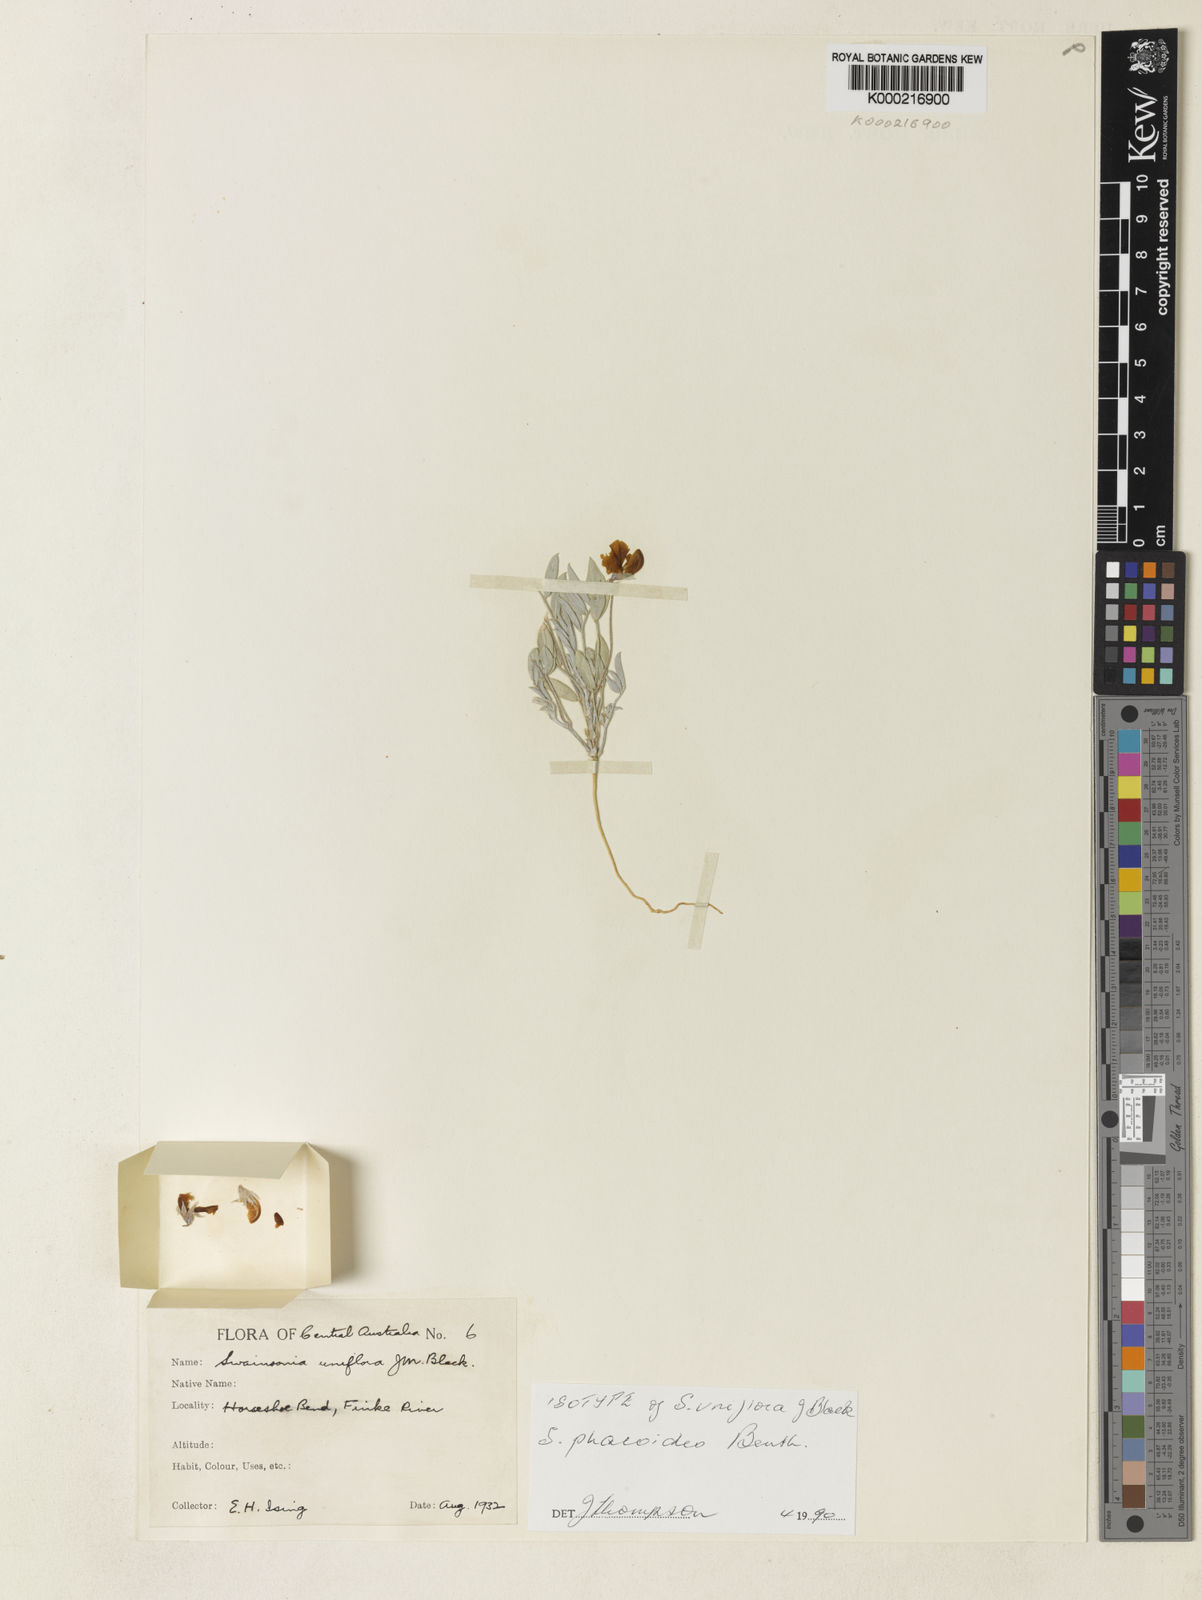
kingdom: Plantae
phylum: Tracheophyta
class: Magnoliopsida
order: Fabales
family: Fabaceae
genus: Swainsona
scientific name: Swainsona phacoides
